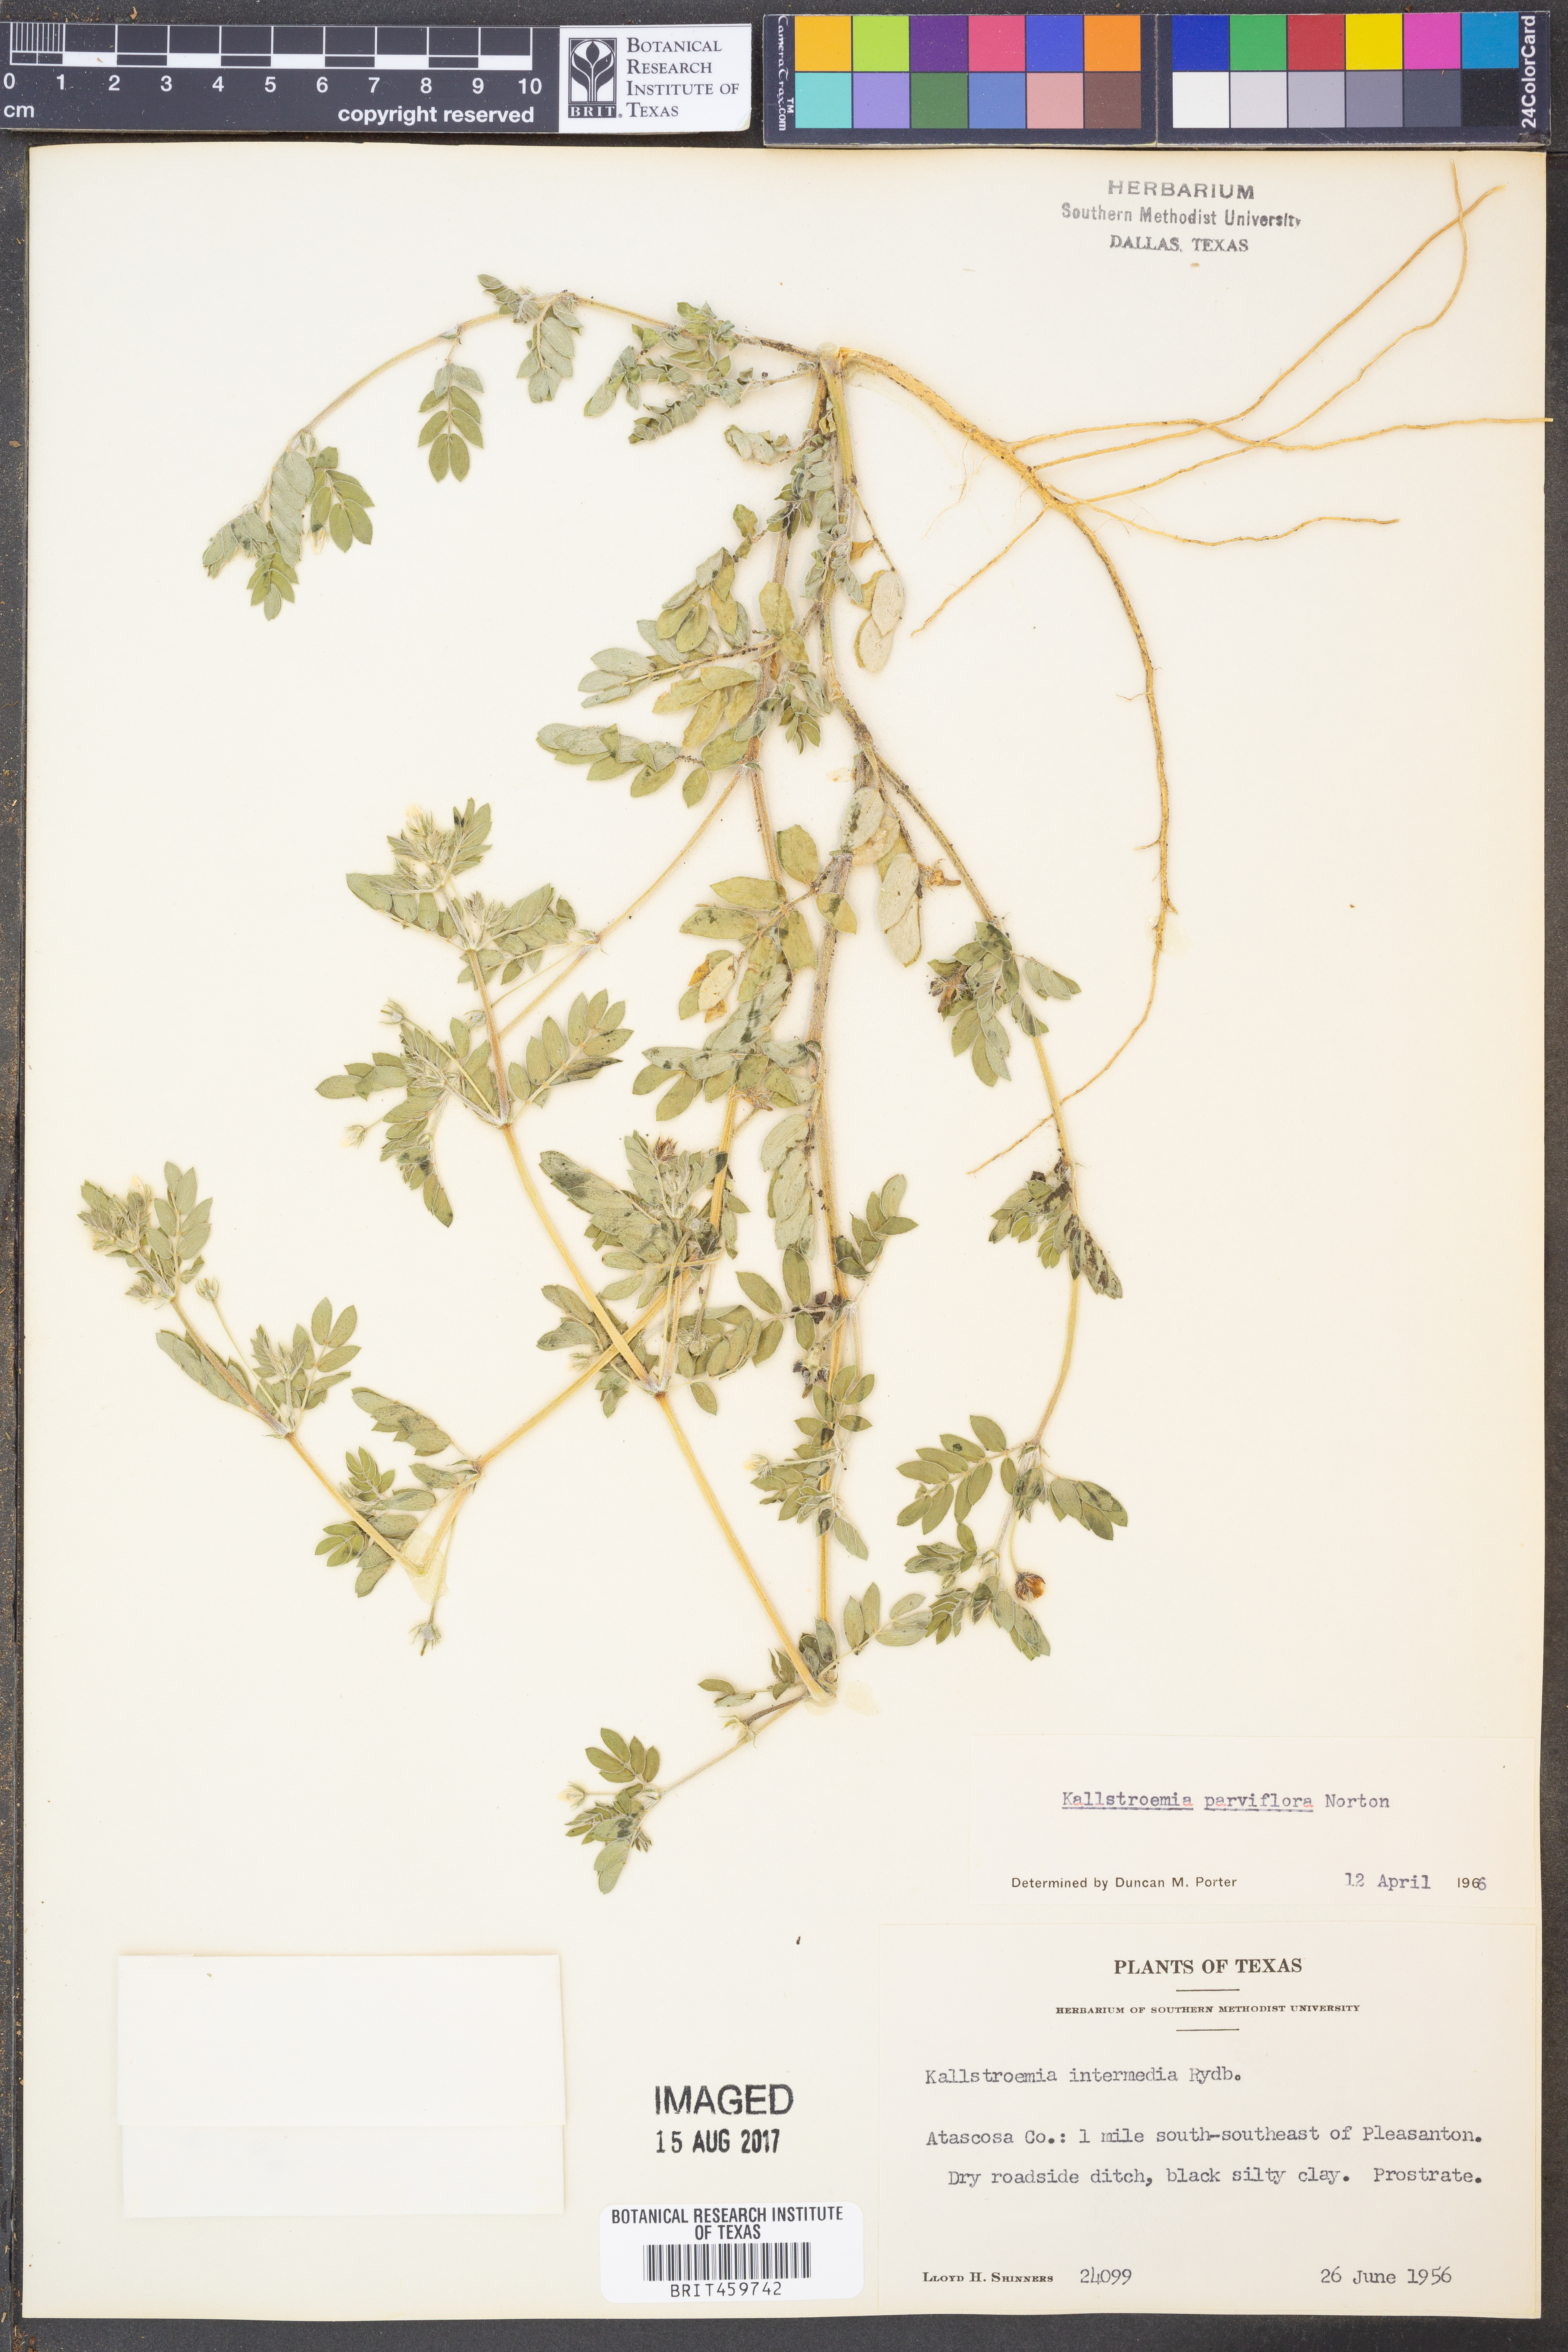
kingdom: Plantae
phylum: Tracheophyta
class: Magnoliopsida
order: Zygophyllales
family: Zygophyllaceae
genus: Kallstroemia
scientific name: Kallstroemia parviflora
